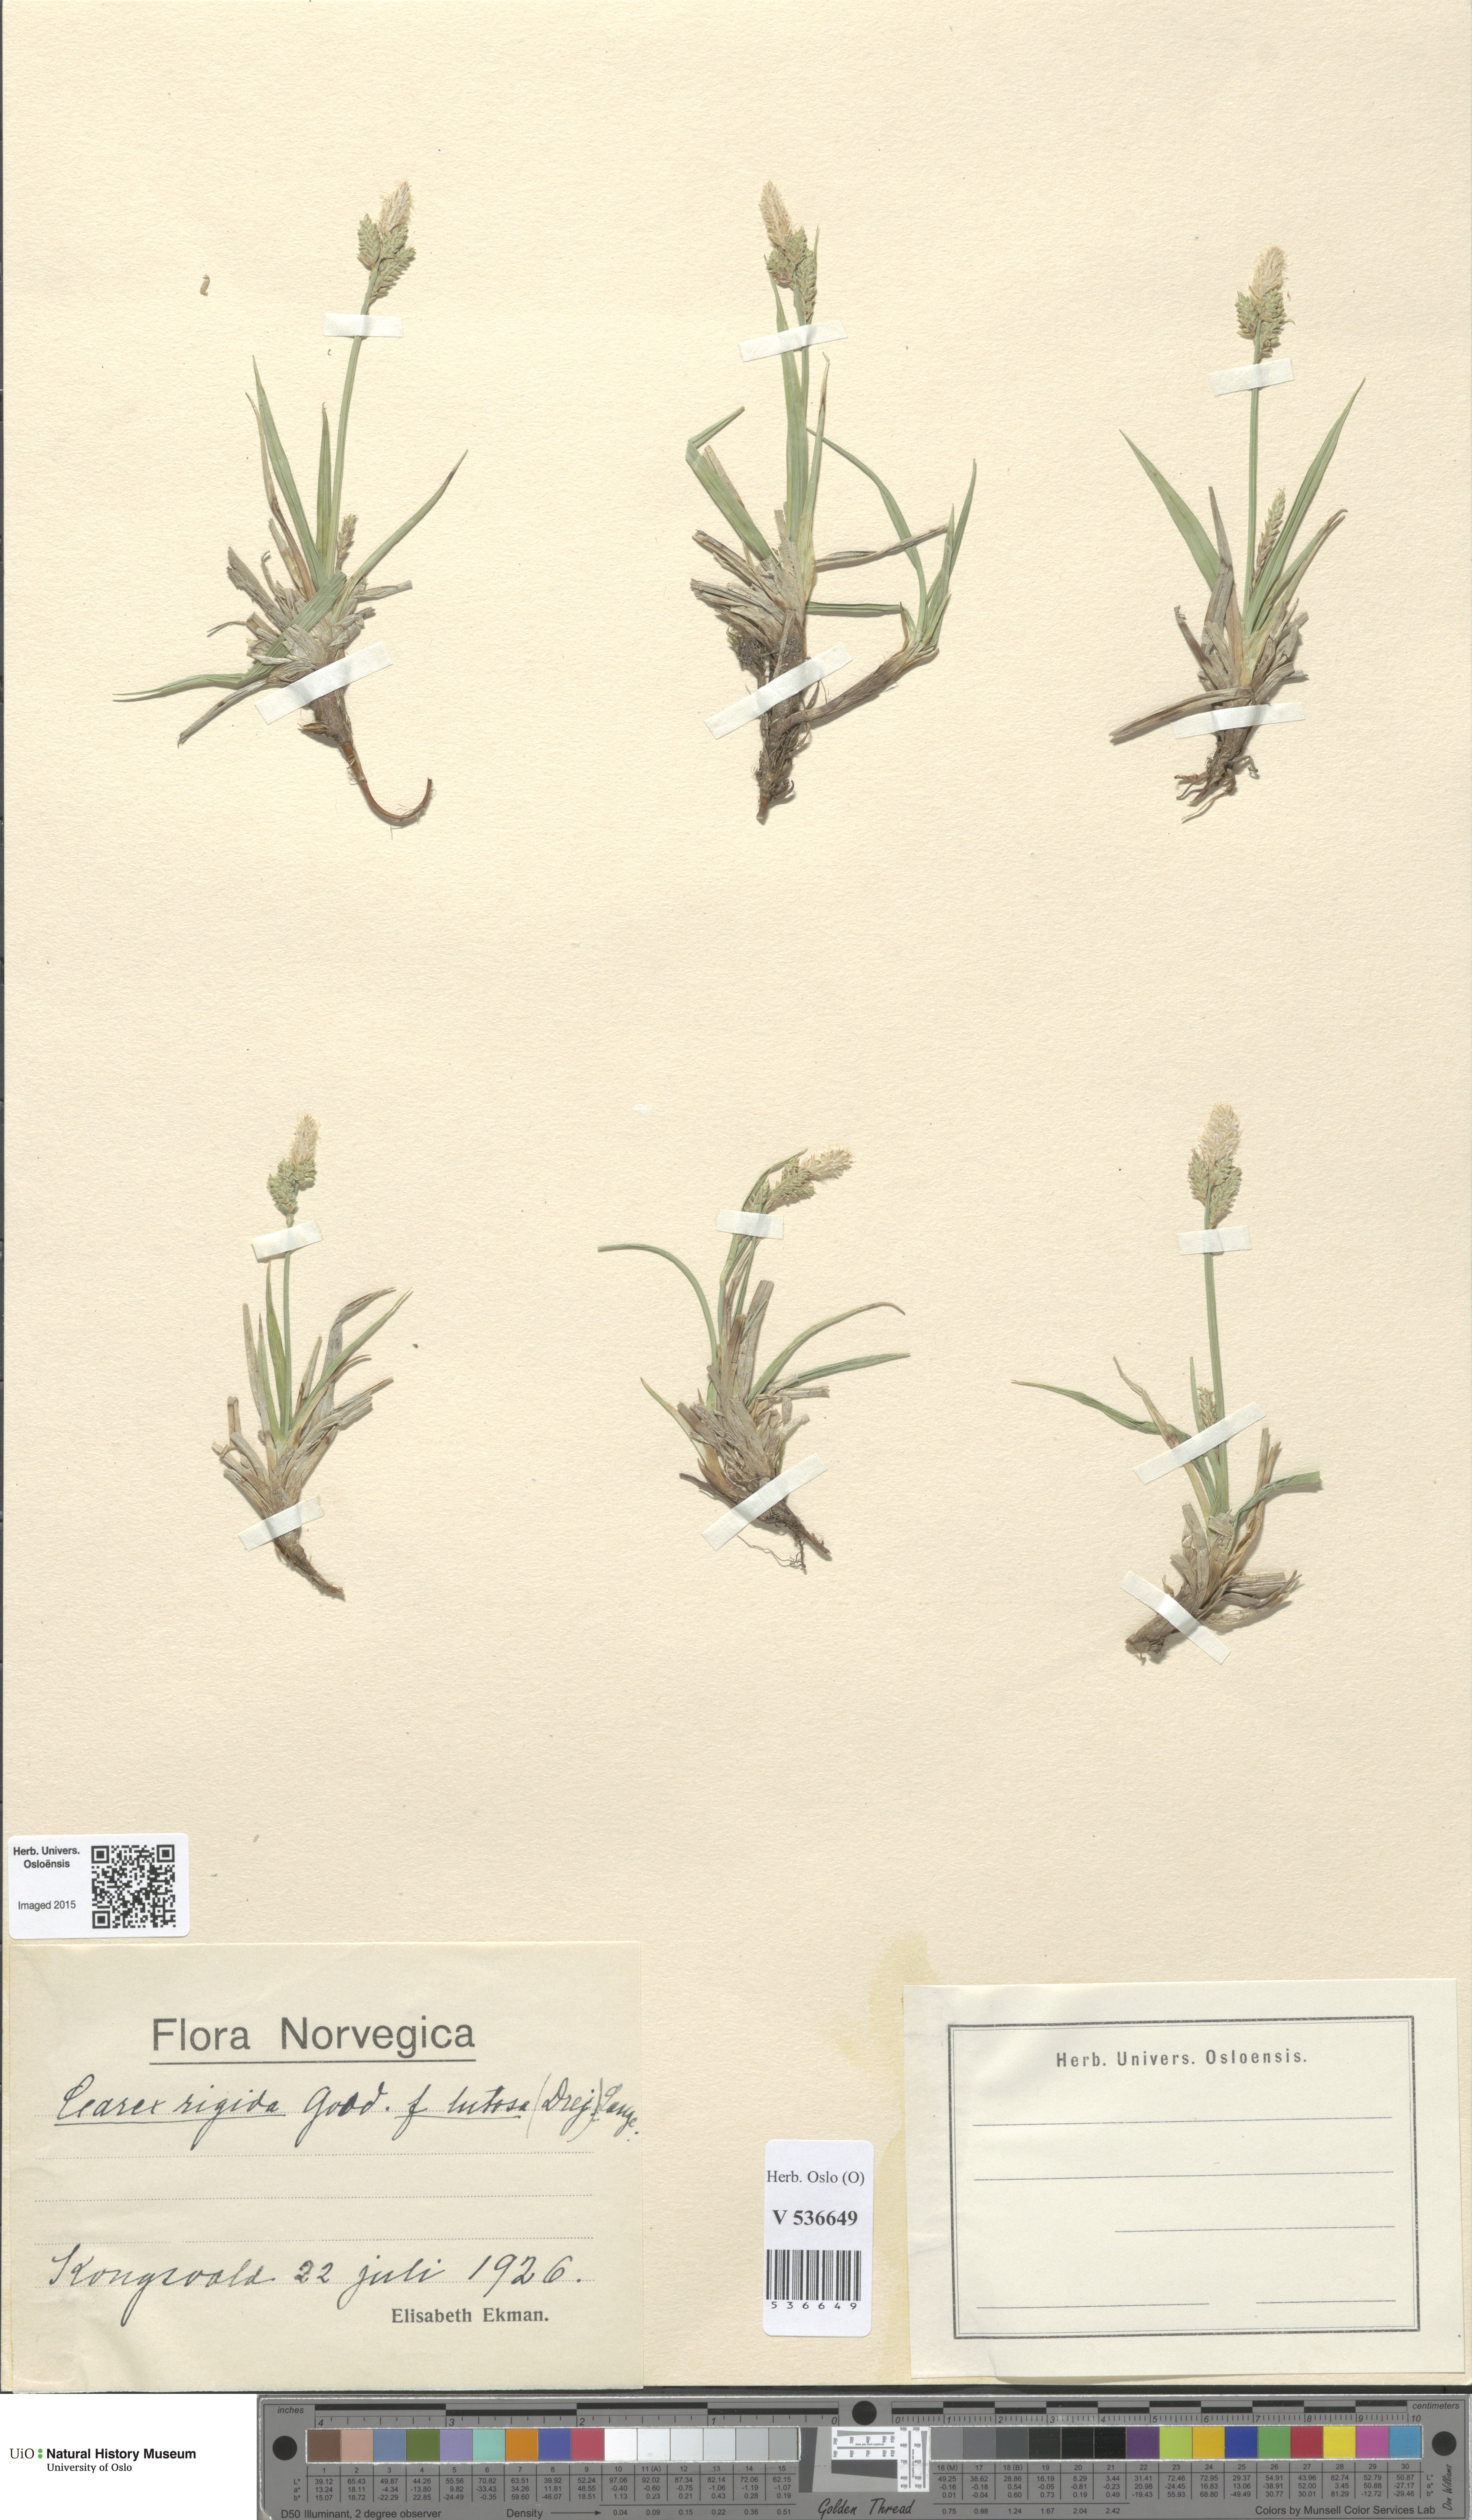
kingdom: Plantae
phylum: Tracheophyta
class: Liliopsida
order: Poales
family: Cyperaceae
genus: Carex
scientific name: Carex dacica
